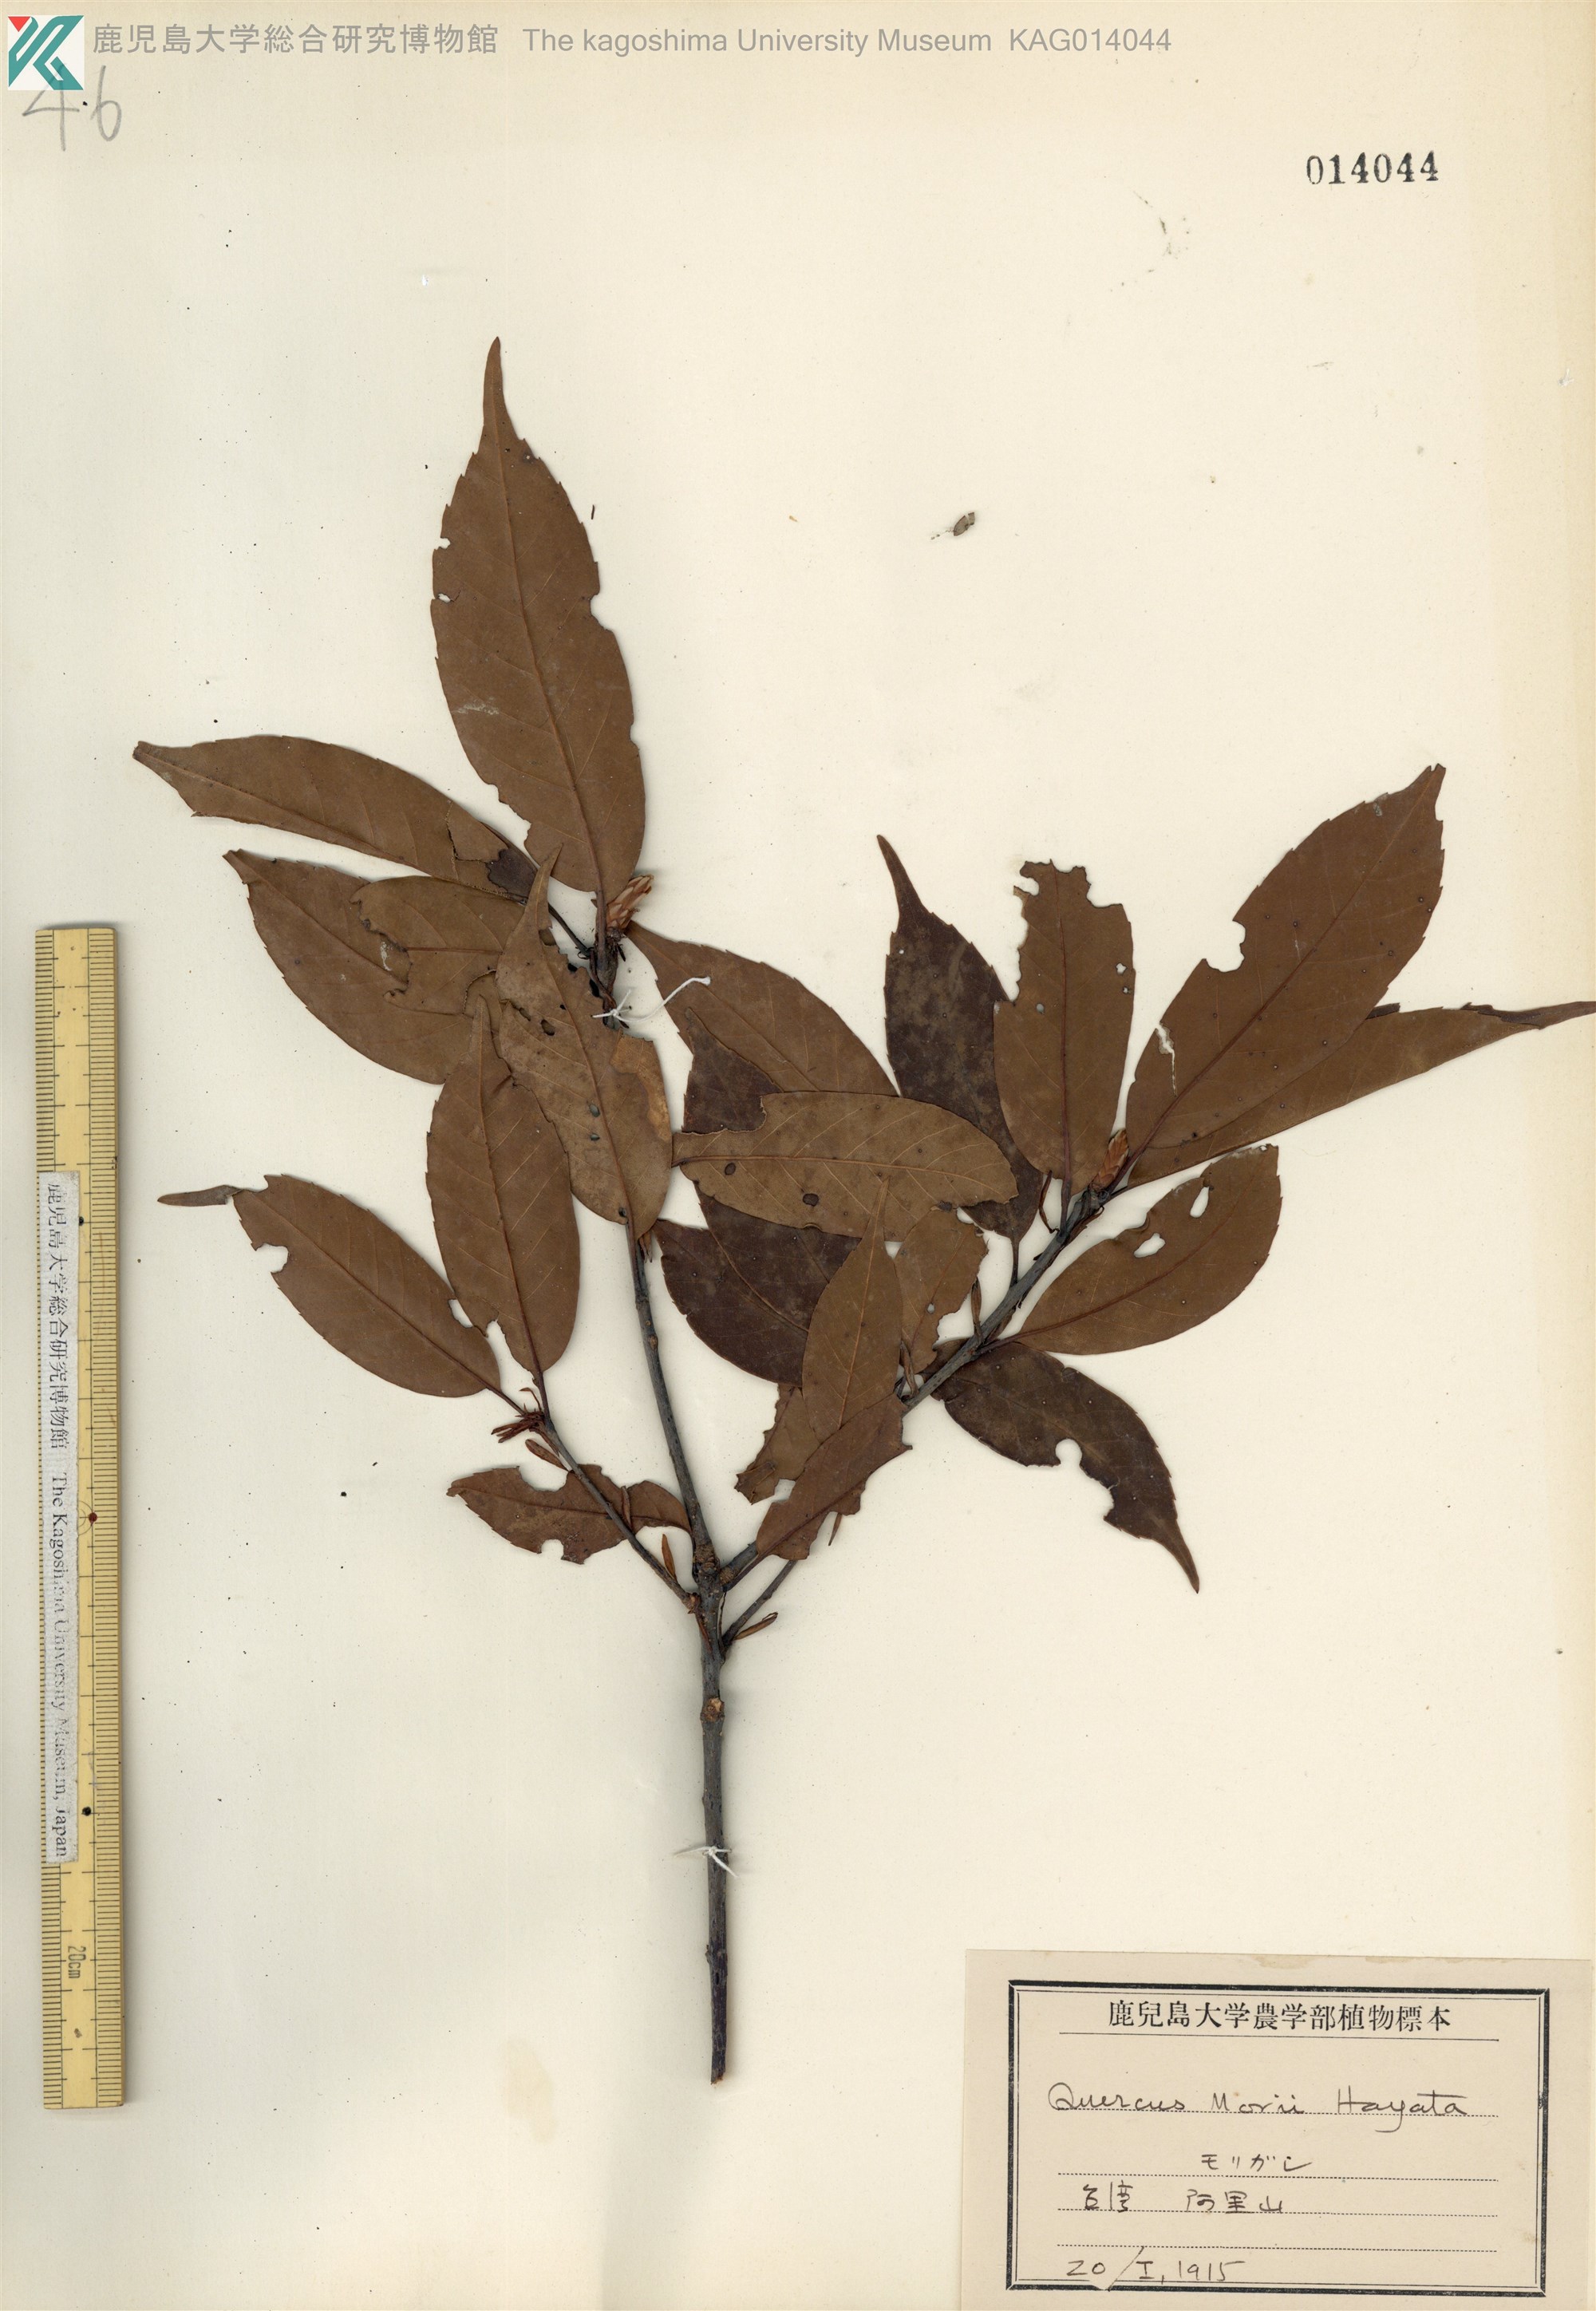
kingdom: Plantae
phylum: Tracheophyta
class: Magnoliopsida
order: Fagales
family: Fagaceae
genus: Quercus
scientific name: Quercus morii
